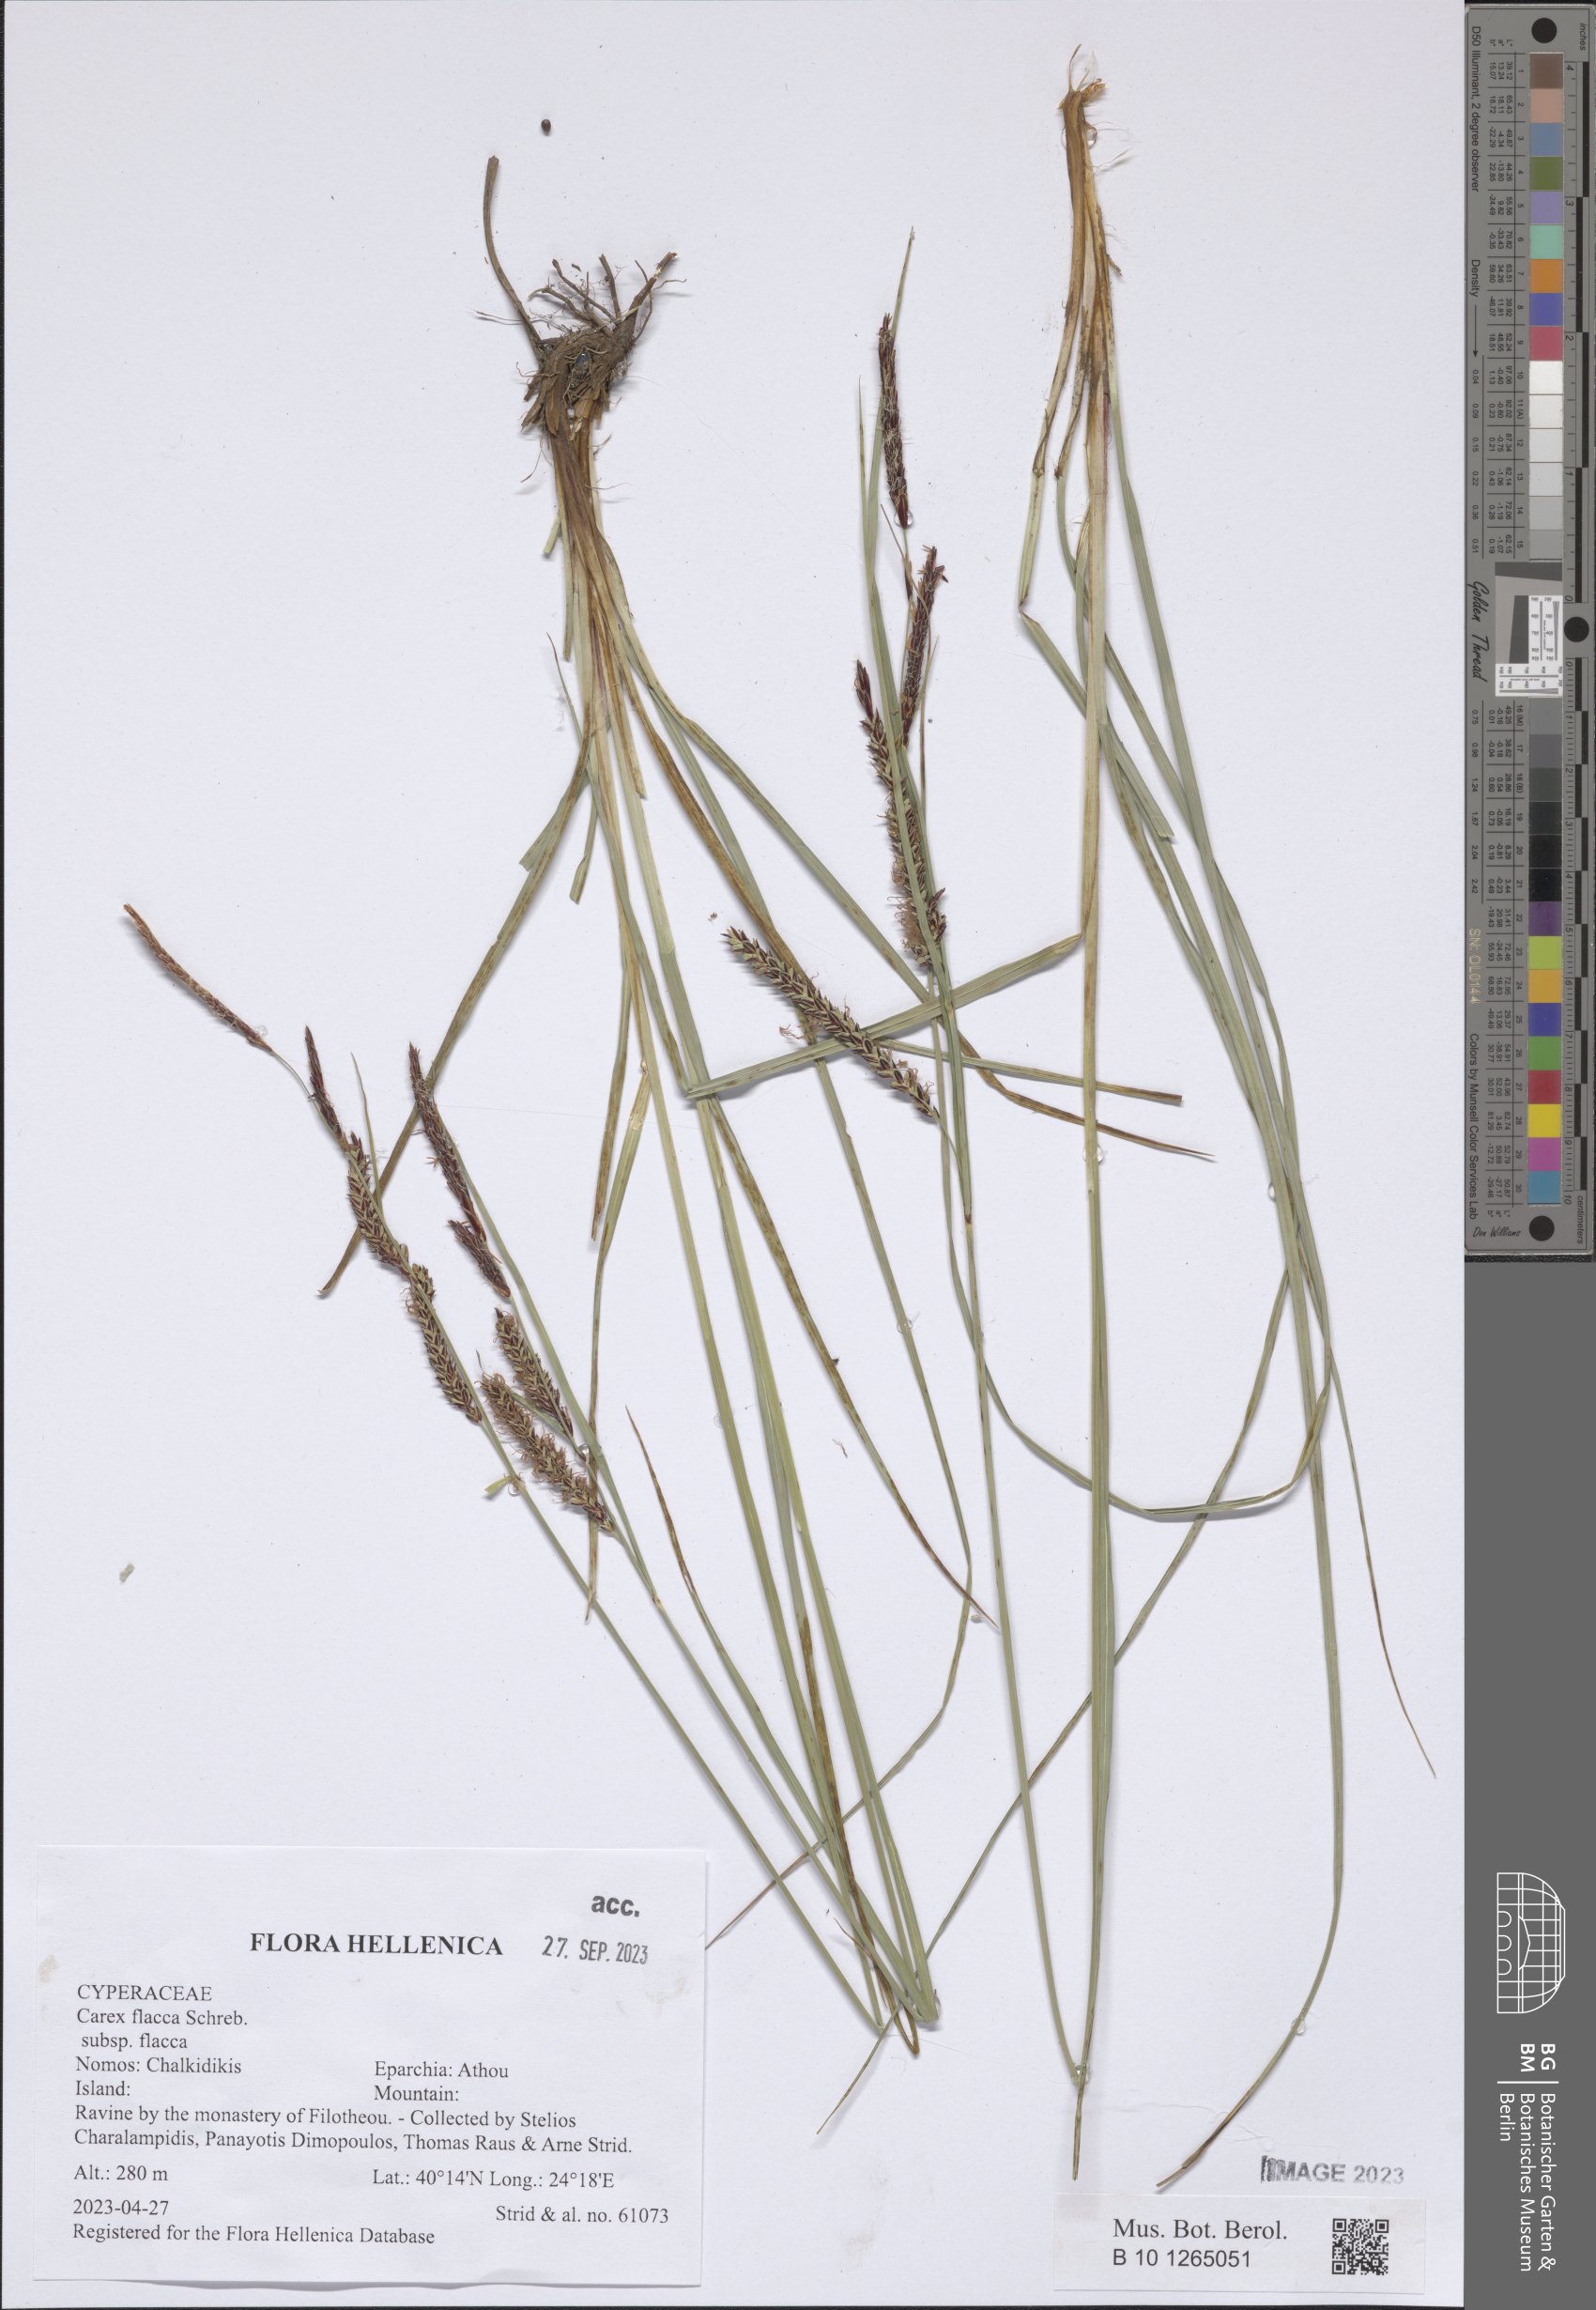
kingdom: Plantae
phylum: Tracheophyta
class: Liliopsida
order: Poales
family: Cyperaceae
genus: Carex
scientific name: Carex flacca
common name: Glaucous sedge
